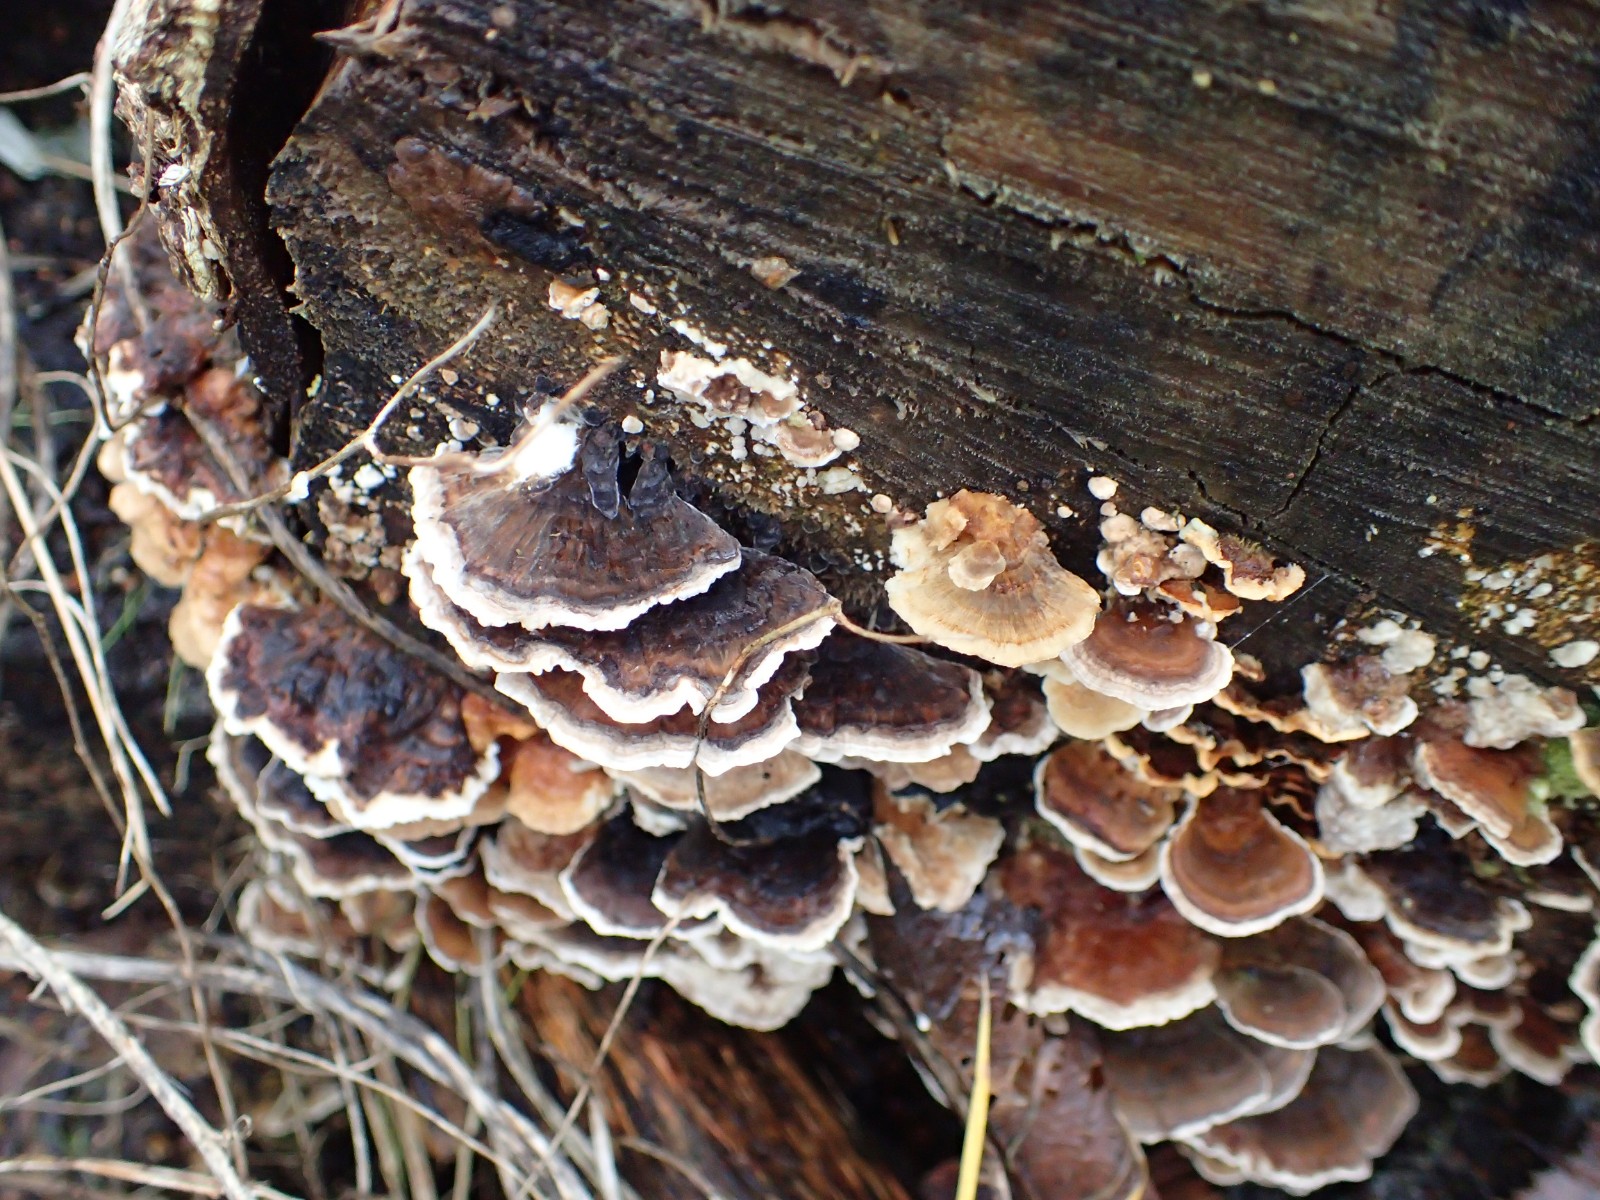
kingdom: Fungi
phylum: Basidiomycota
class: Agaricomycetes
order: Polyporales
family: Polyporaceae
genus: Trametes
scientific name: Trametes versicolor
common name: broget læderporesvamp
